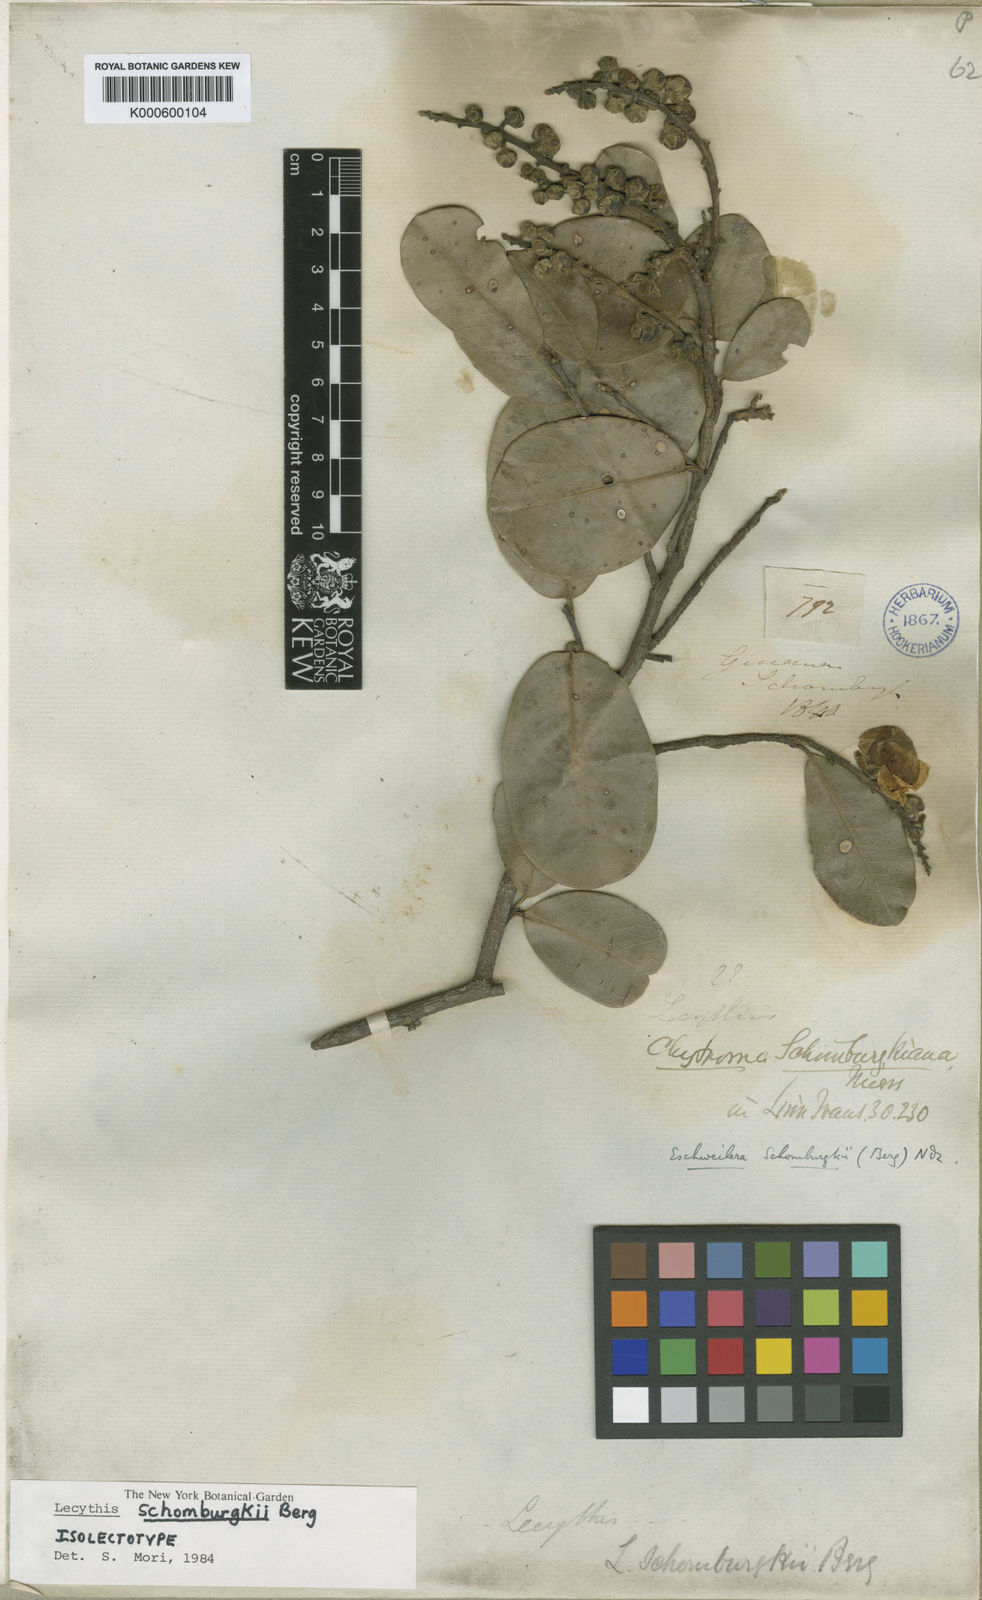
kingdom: Plantae
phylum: Tracheophyta
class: Magnoliopsida
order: Ericales
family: Lecythidaceae
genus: Lecythis
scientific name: Lecythis schomburgkii
